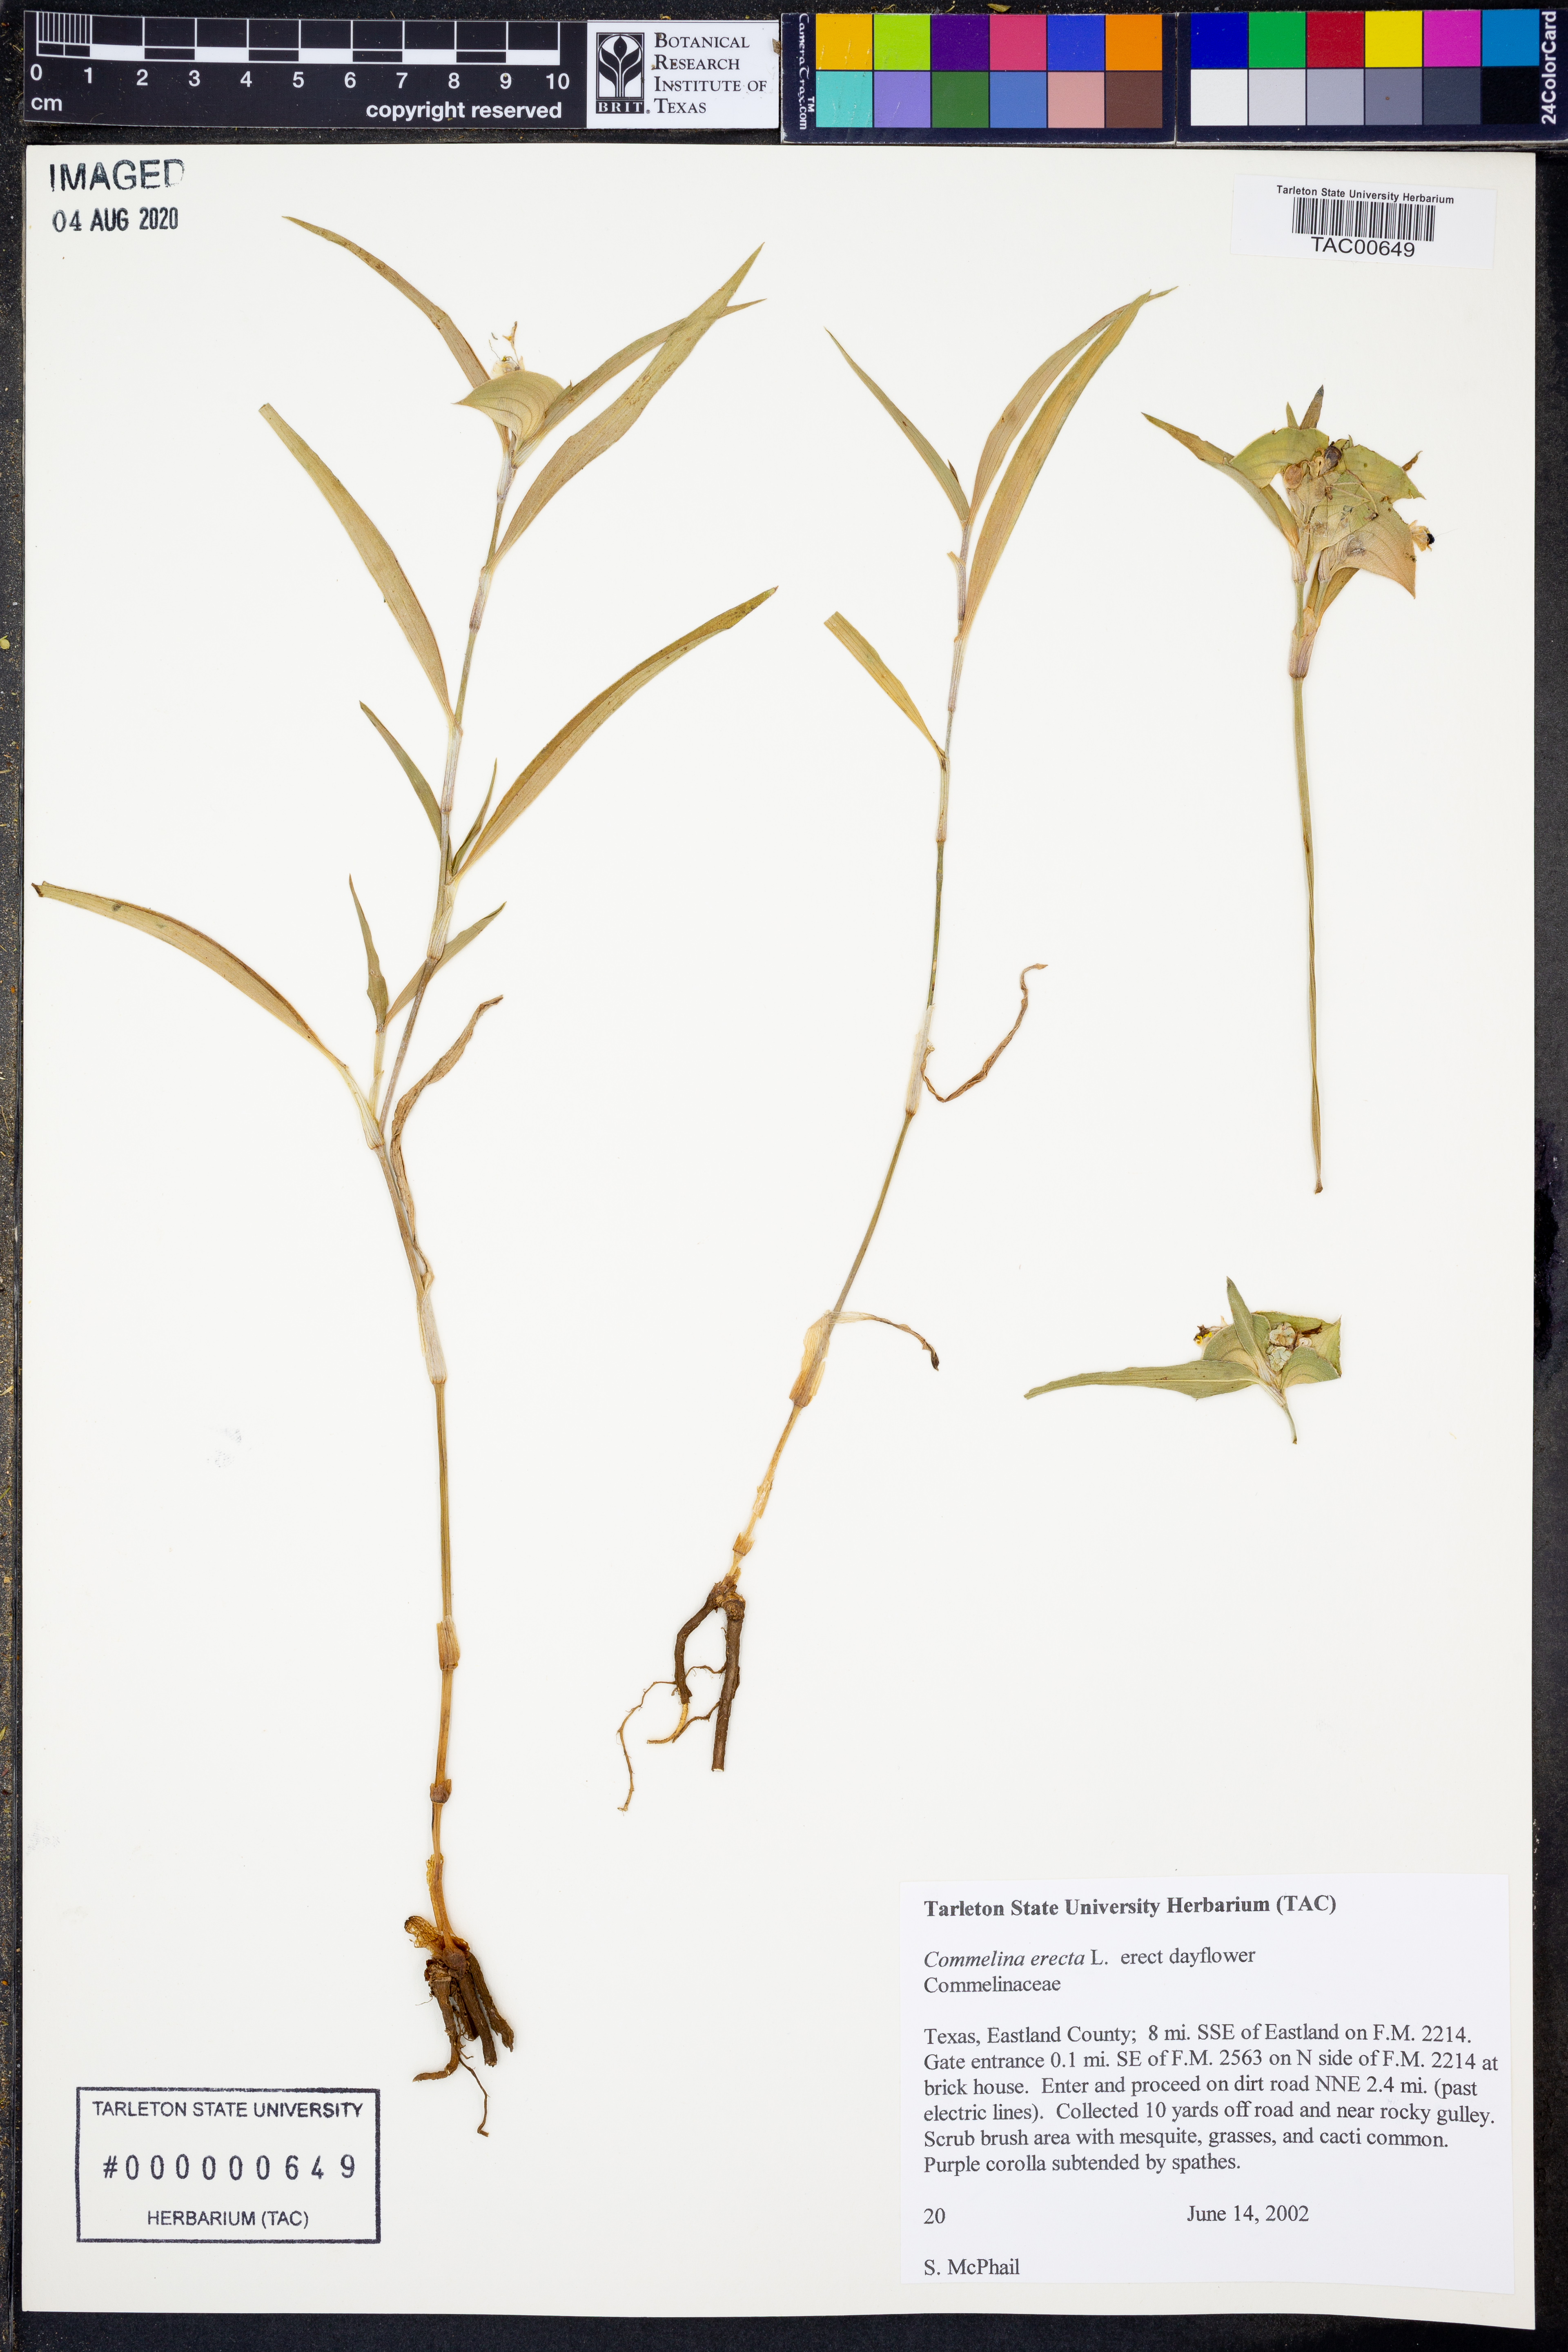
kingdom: Plantae
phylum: Tracheophyta
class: Liliopsida
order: Commelinales
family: Commelinaceae
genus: Commelina
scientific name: Commelina erecta
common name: Blousel blommetjie
